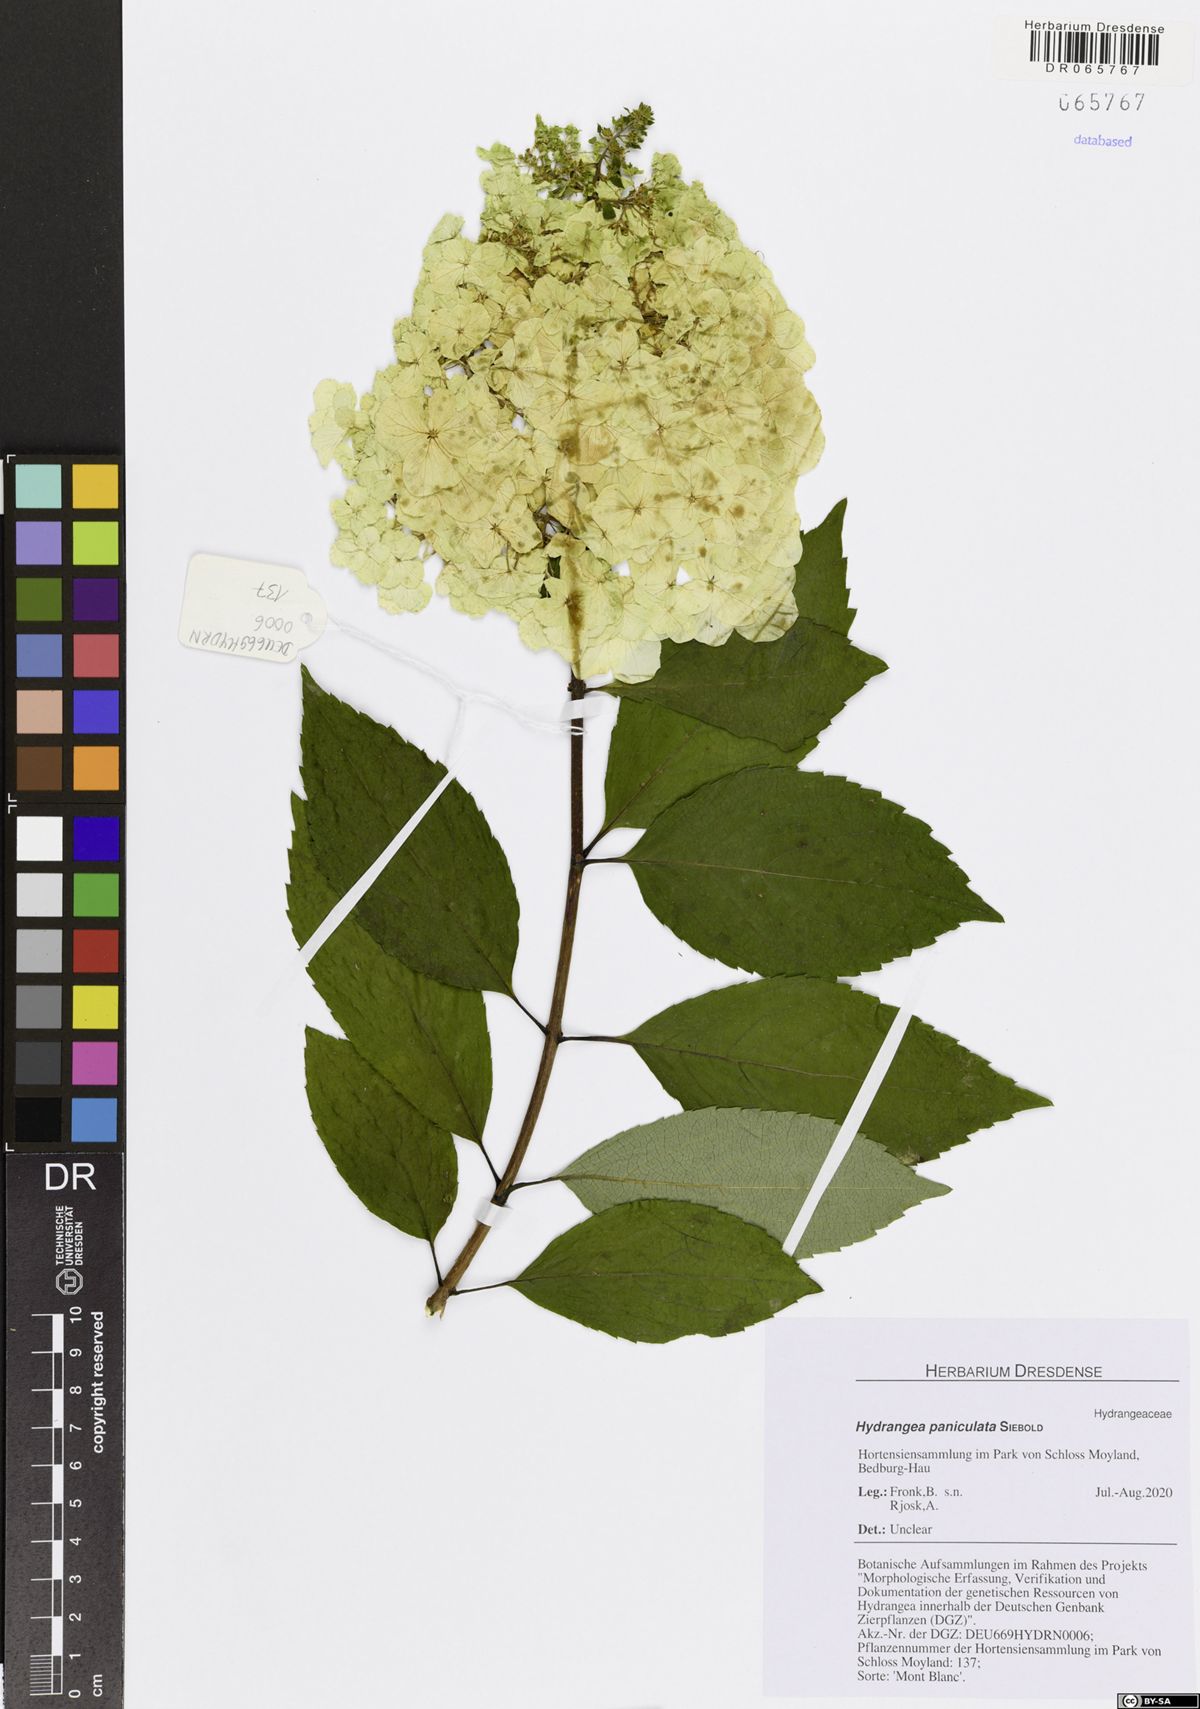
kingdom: Plantae
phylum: Tracheophyta
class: Magnoliopsida
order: Cornales
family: Hydrangeaceae
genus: Hydrangea
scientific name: Hydrangea paniculata
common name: Panicled hydrangea
